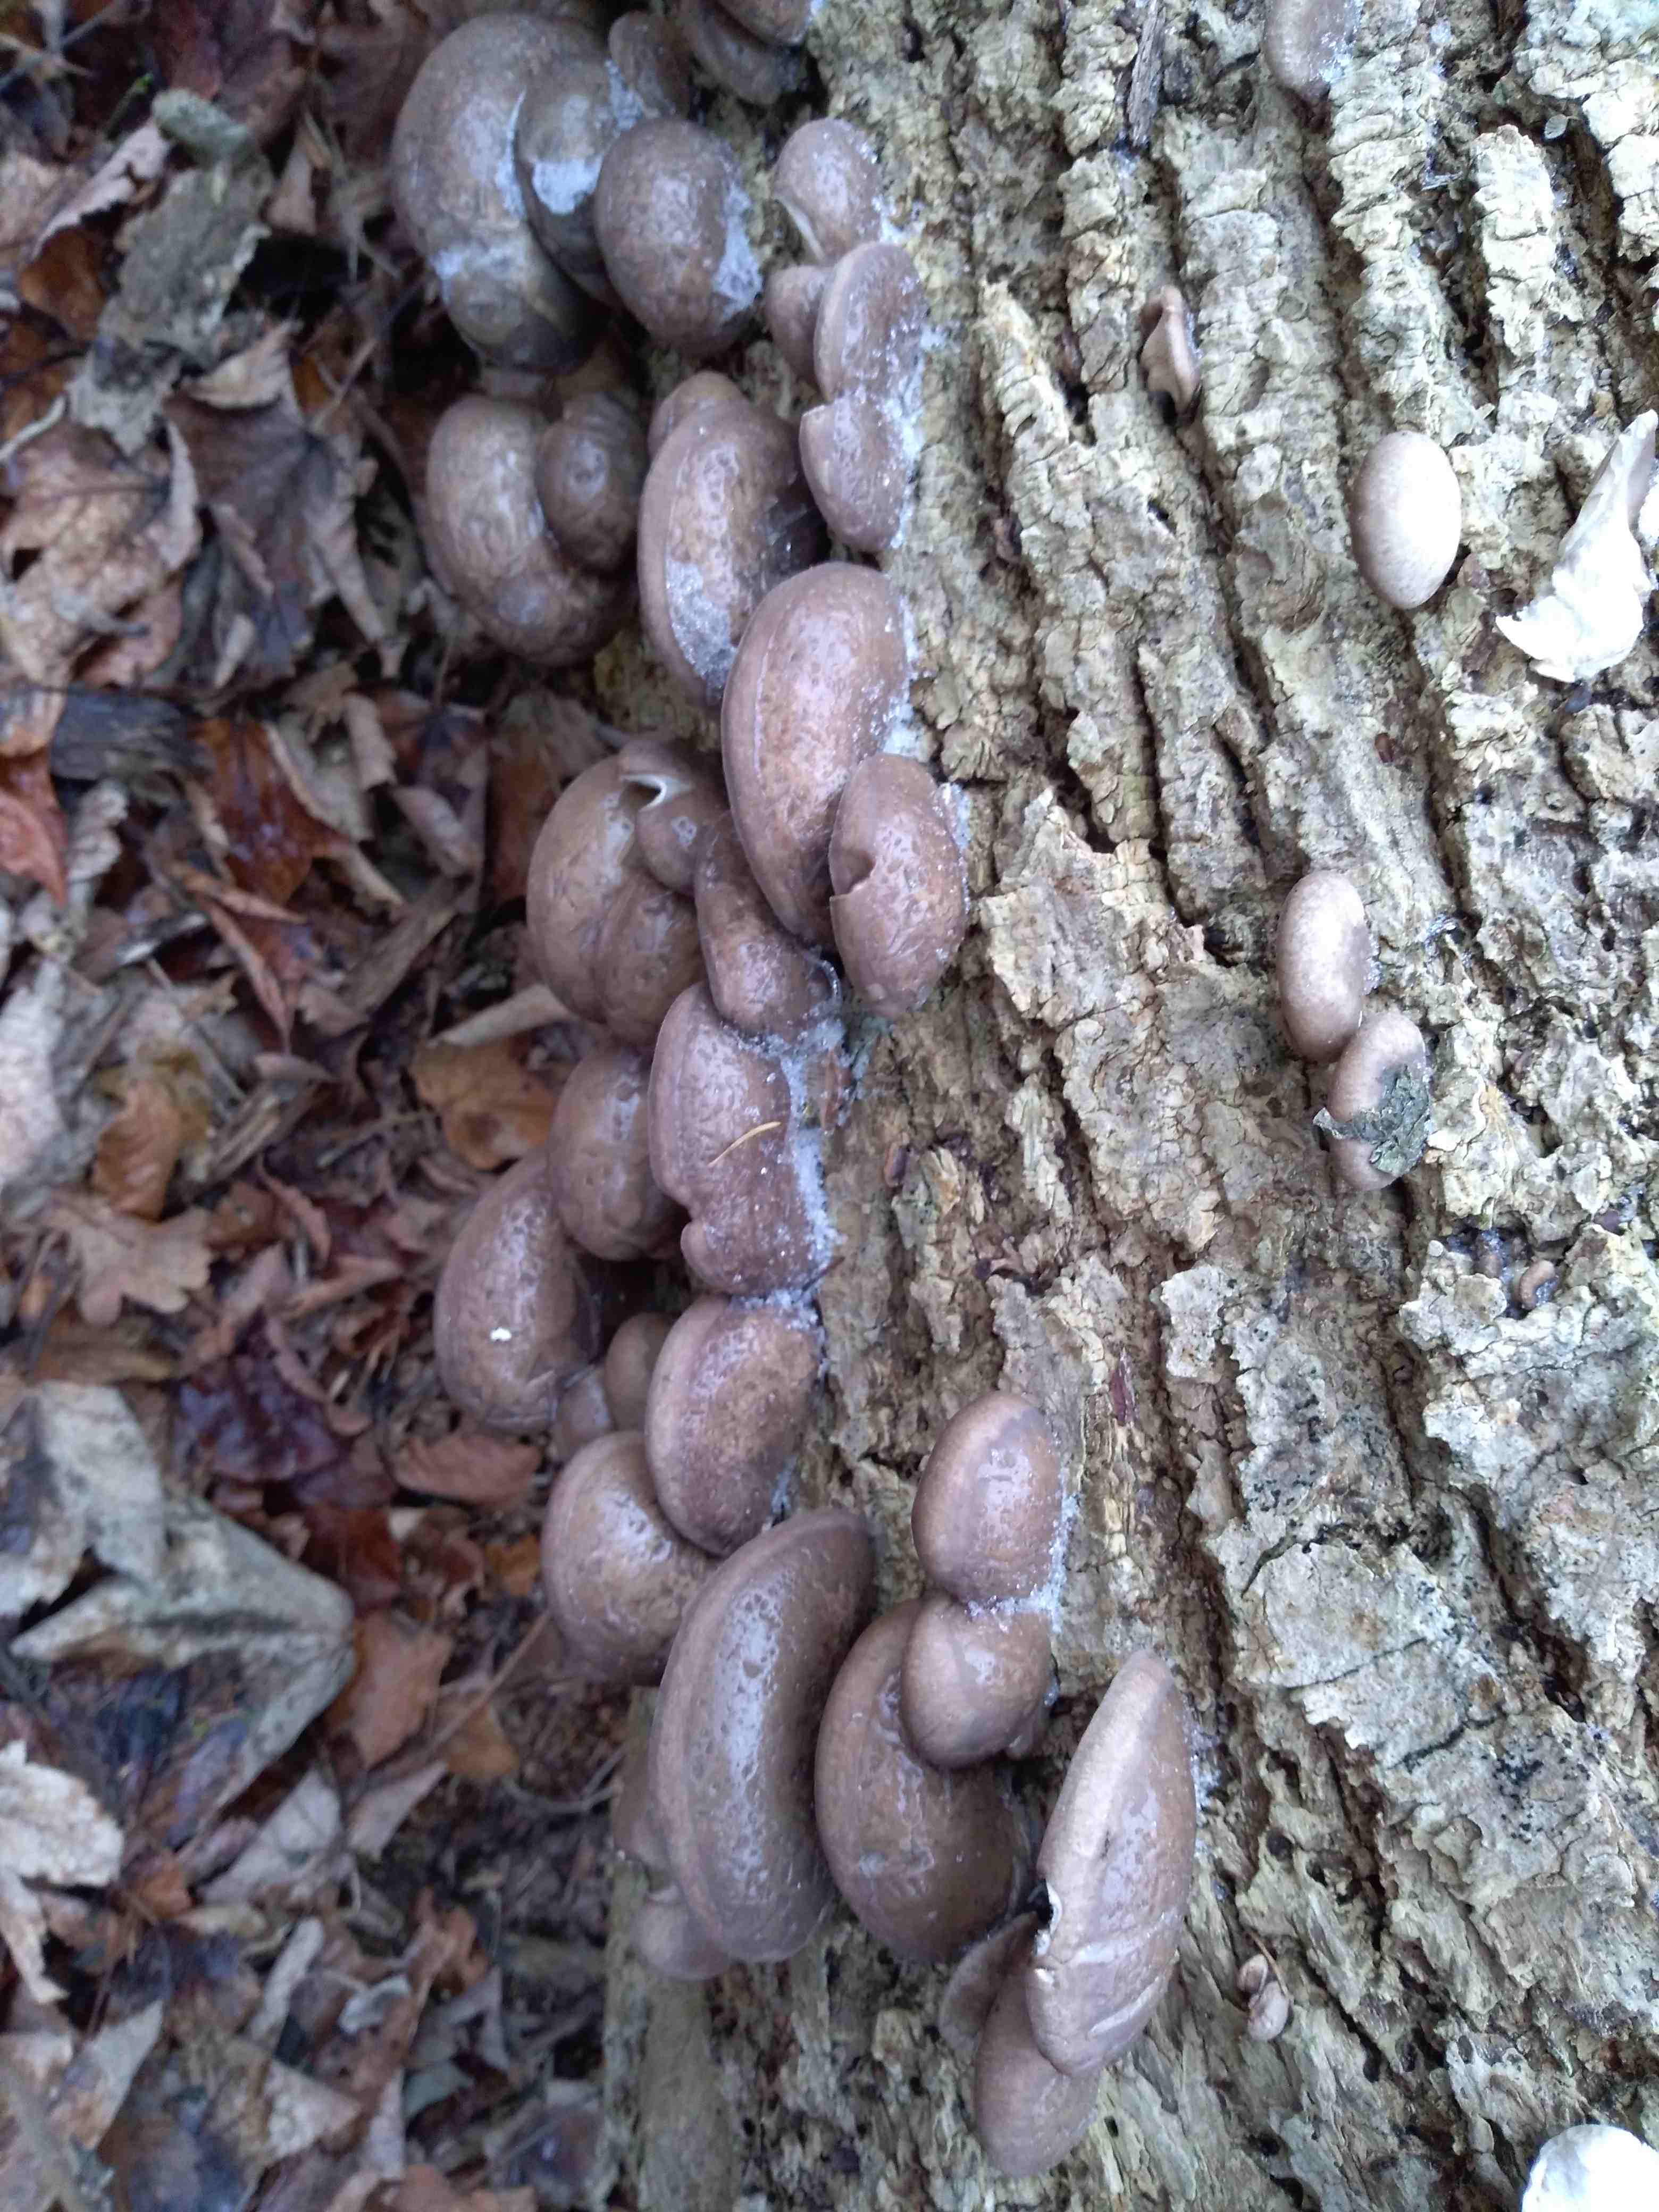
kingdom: Fungi
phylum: Basidiomycota
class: Agaricomycetes
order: Agaricales
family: Pleurotaceae
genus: Pleurotus
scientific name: Pleurotus ostreatus
